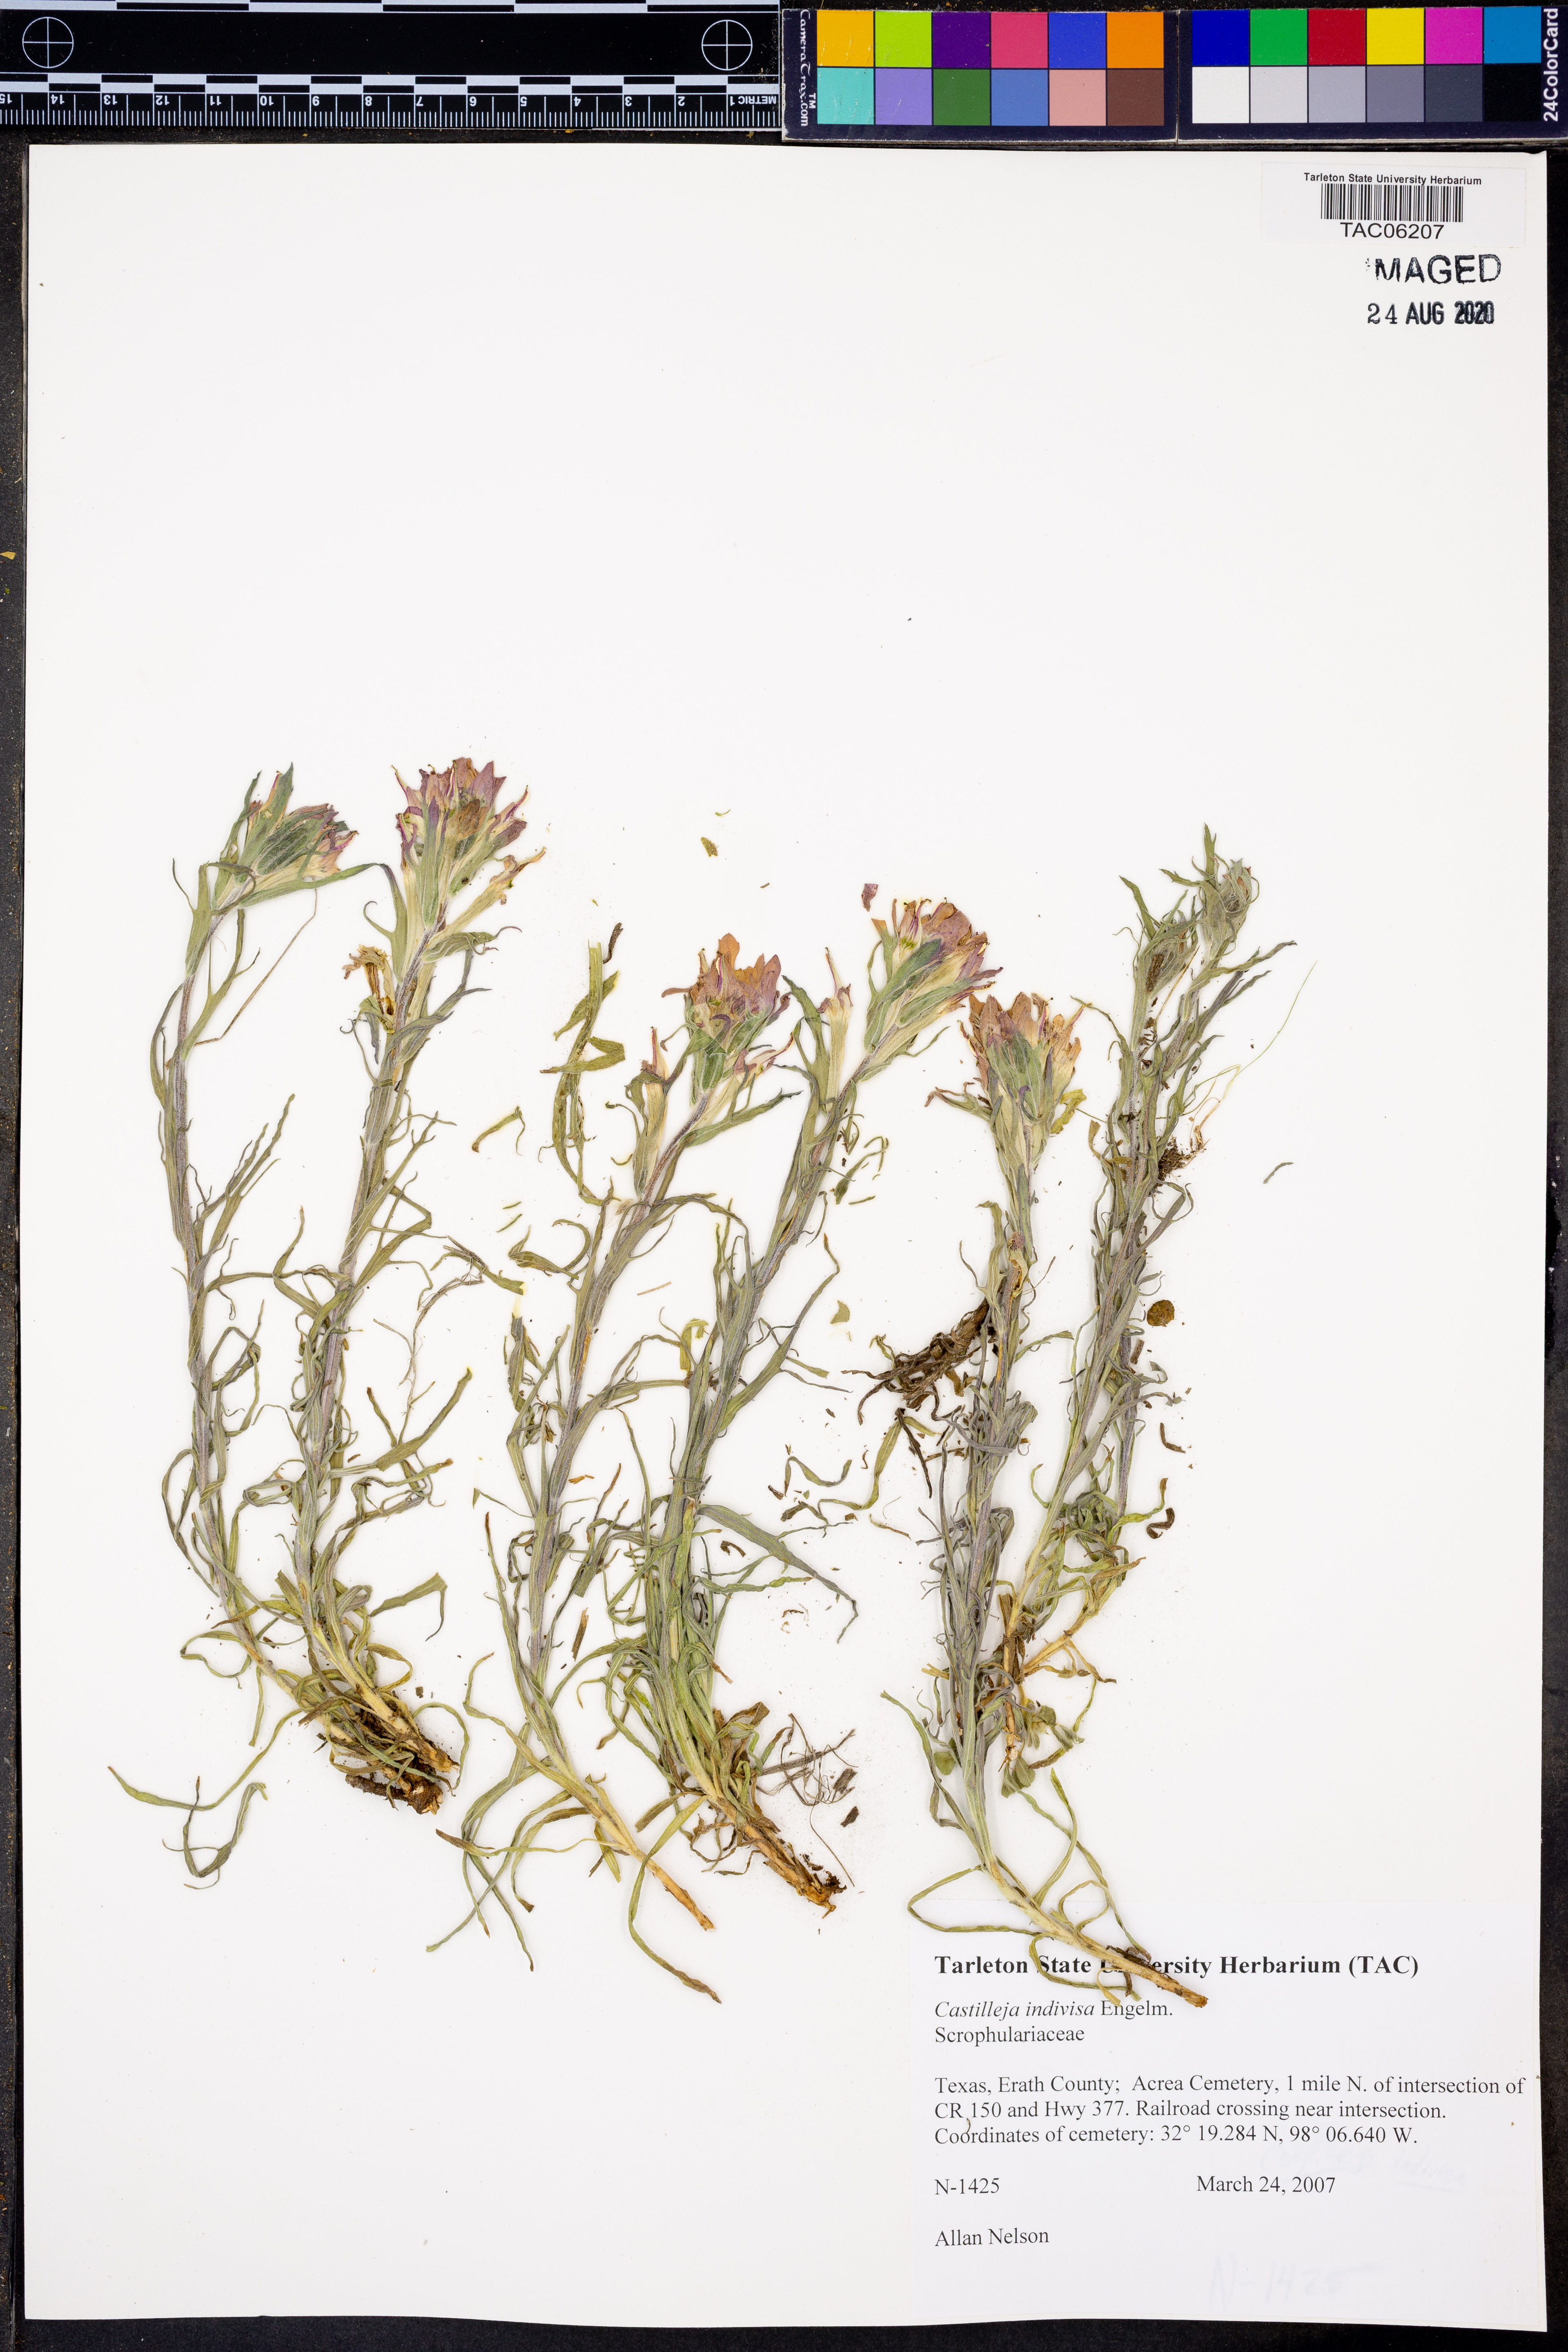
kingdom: Plantae
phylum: Tracheophyta
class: Magnoliopsida
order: Lamiales
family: Orobanchaceae
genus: Castilleja
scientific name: Castilleja indivisa
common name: Texas paintbrush
